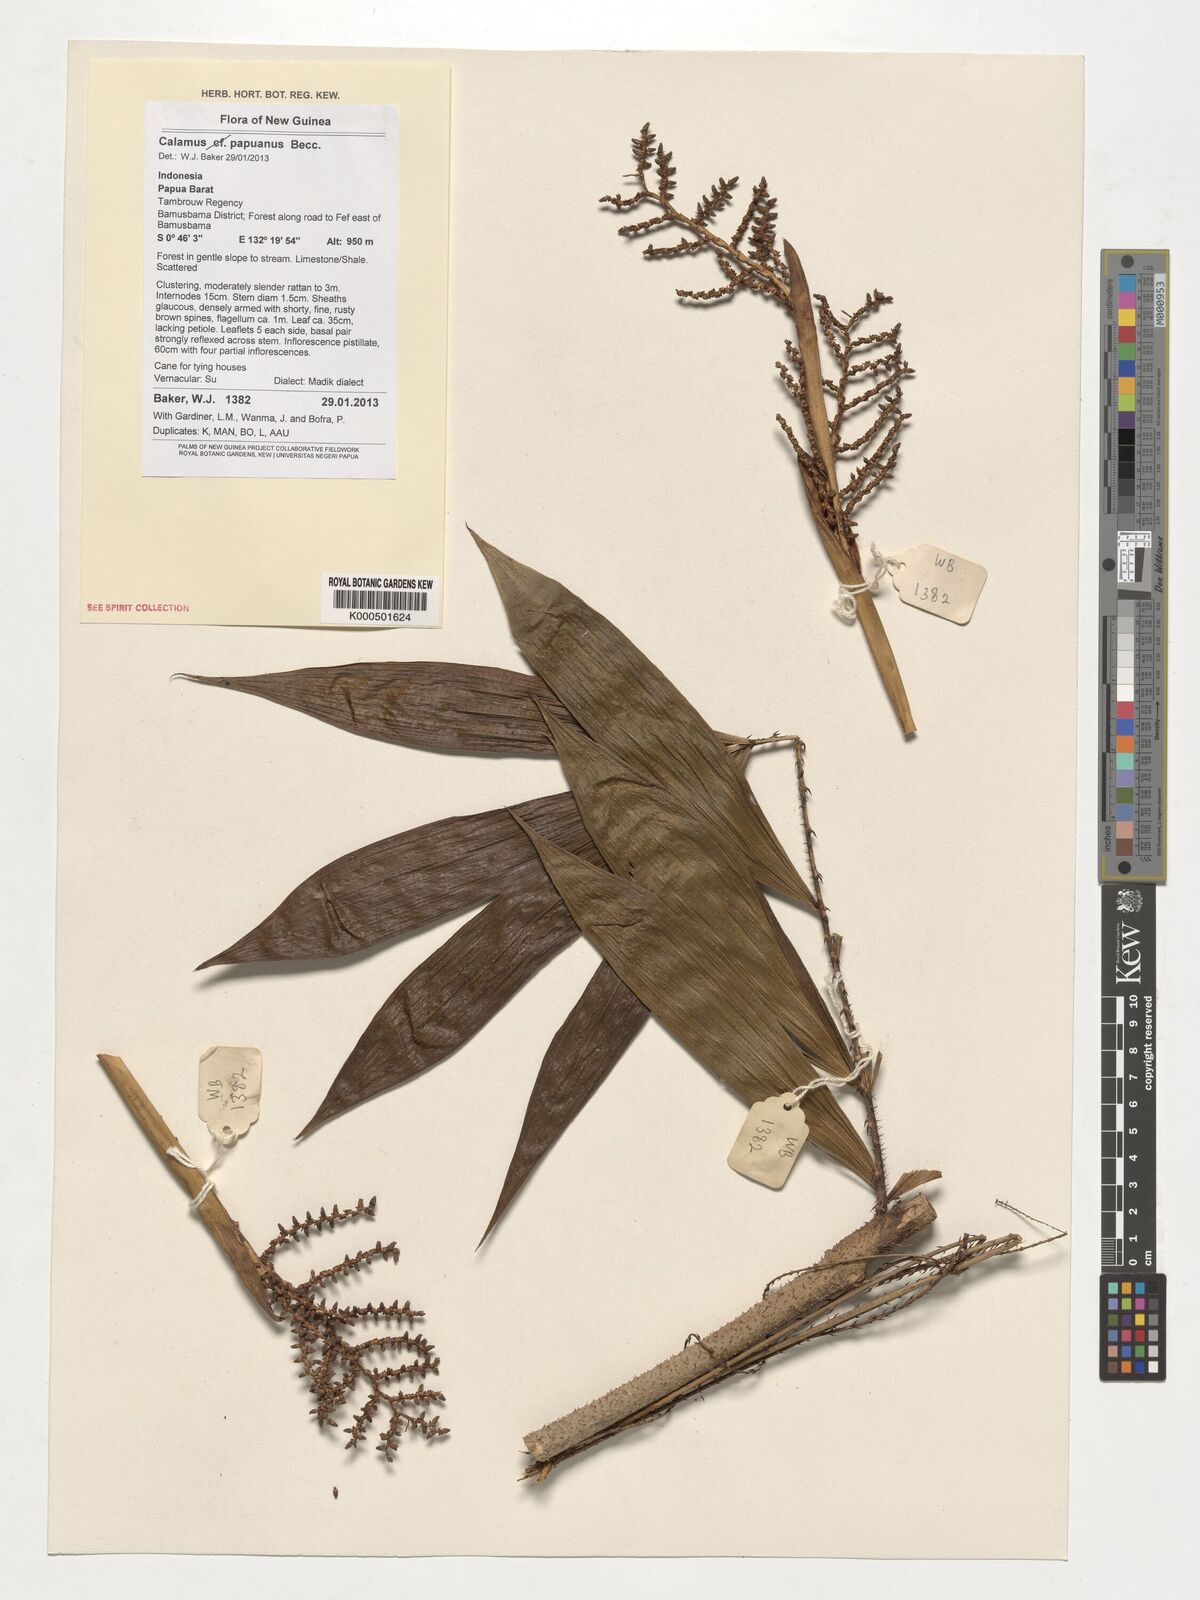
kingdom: Plantae
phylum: Tracheophyta
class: Liliopsida
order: Arecales
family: Arecaceae
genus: Calamus
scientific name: Calamus papuanus
